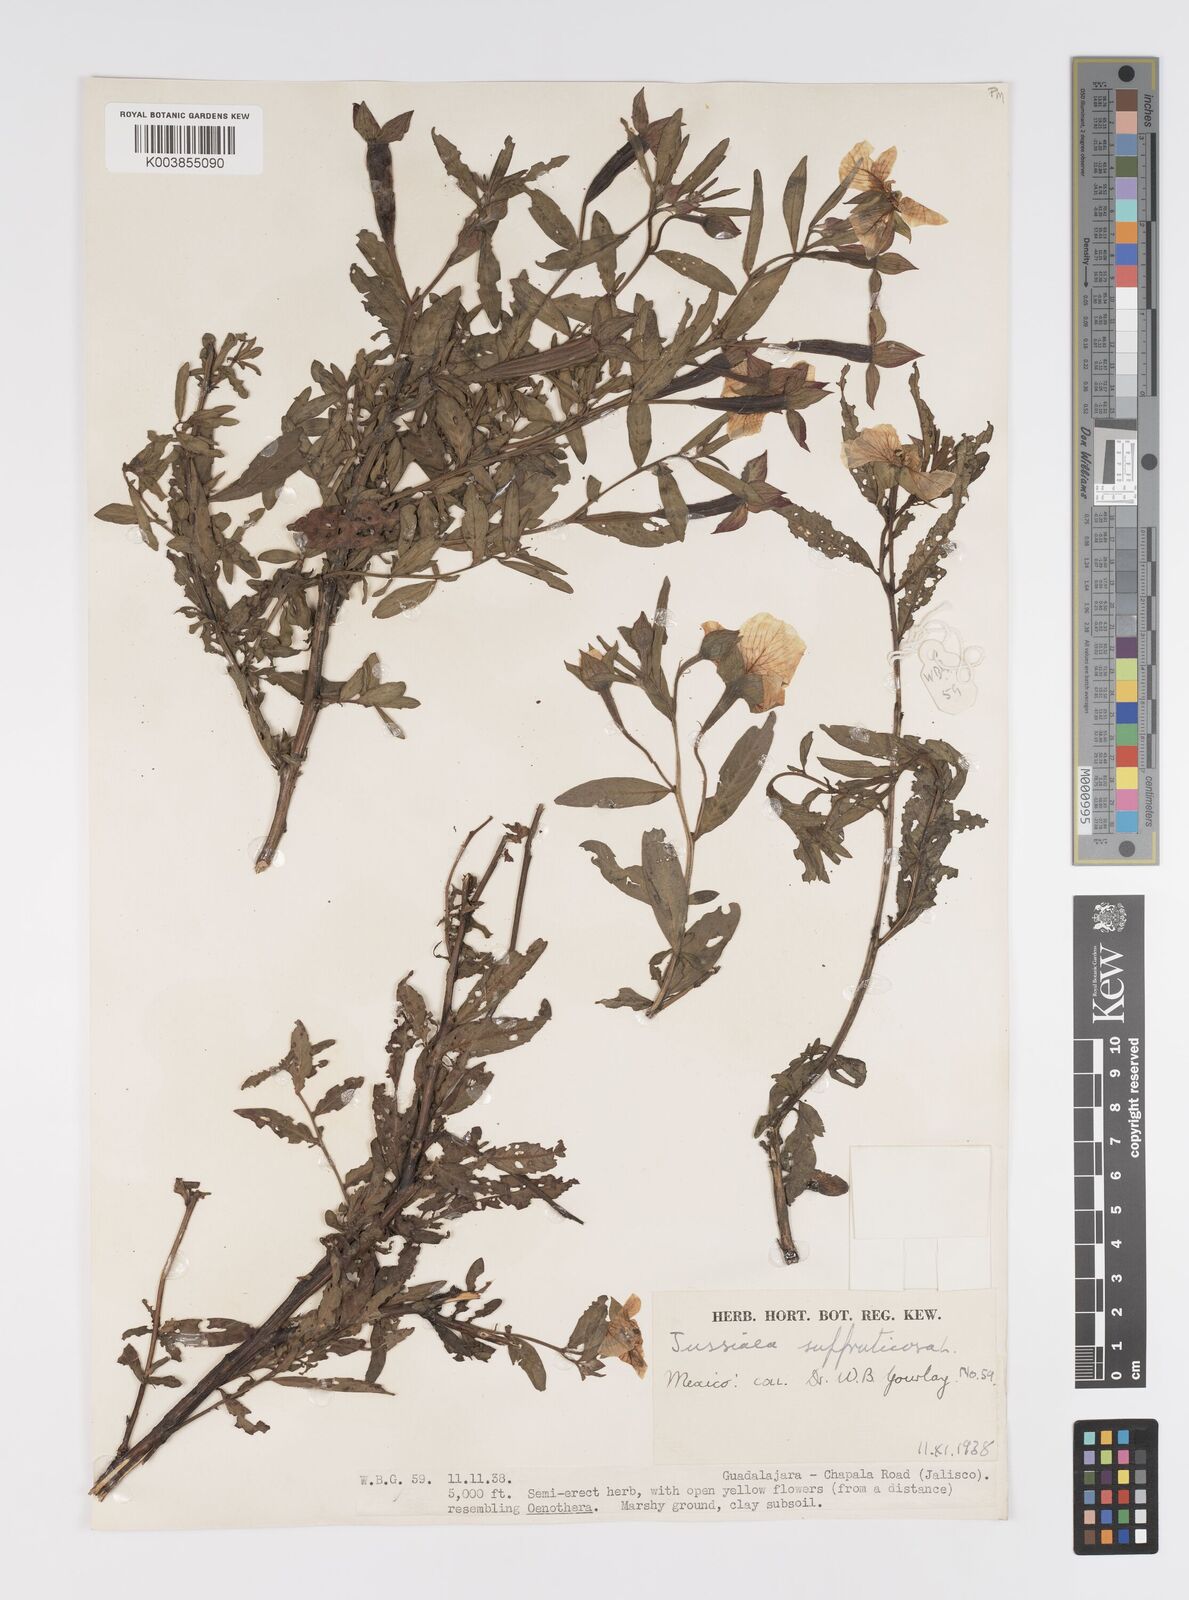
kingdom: Plantae
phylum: Tracheophyta
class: Magnoliopsida
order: Myrtales
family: Onagraceae
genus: Ludwigia
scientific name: Ludwigia octovalvis
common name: Water-primrose
